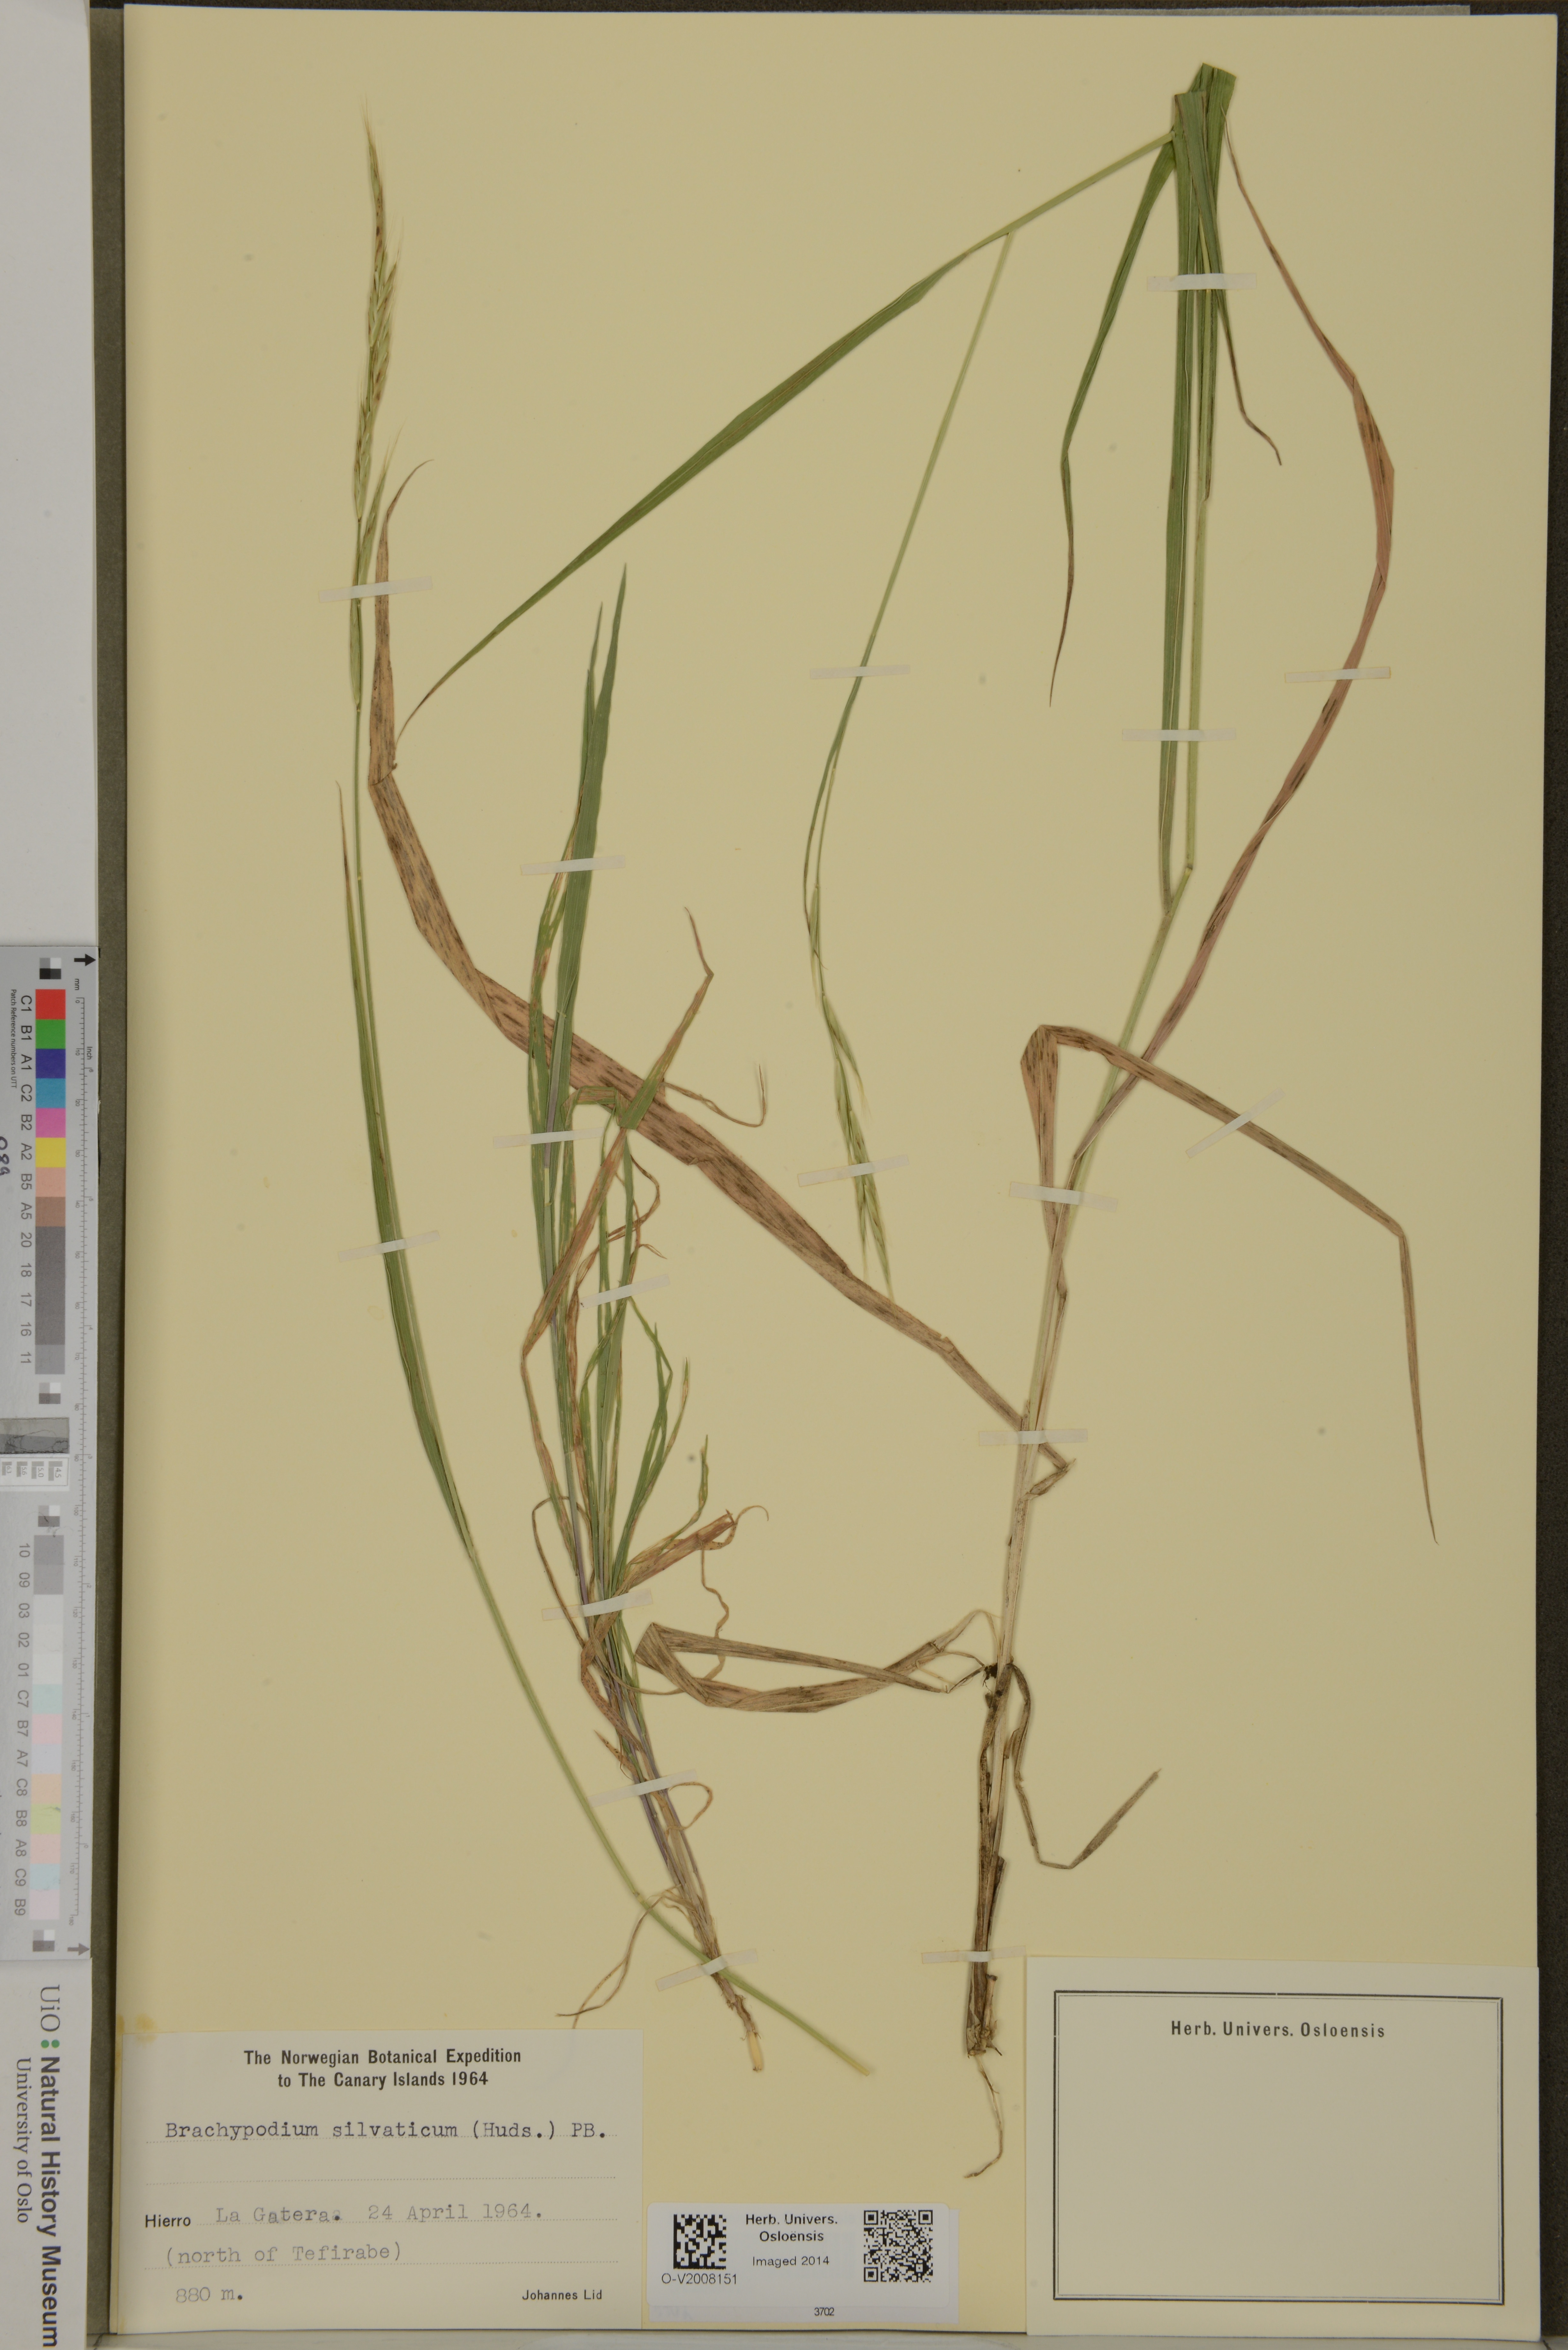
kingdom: Plantae
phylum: Tracheophyta
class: Liliopsida
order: Poales
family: Poaceae
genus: Brachypodium
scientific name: Brachypodium sylvaticum
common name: False-brome
